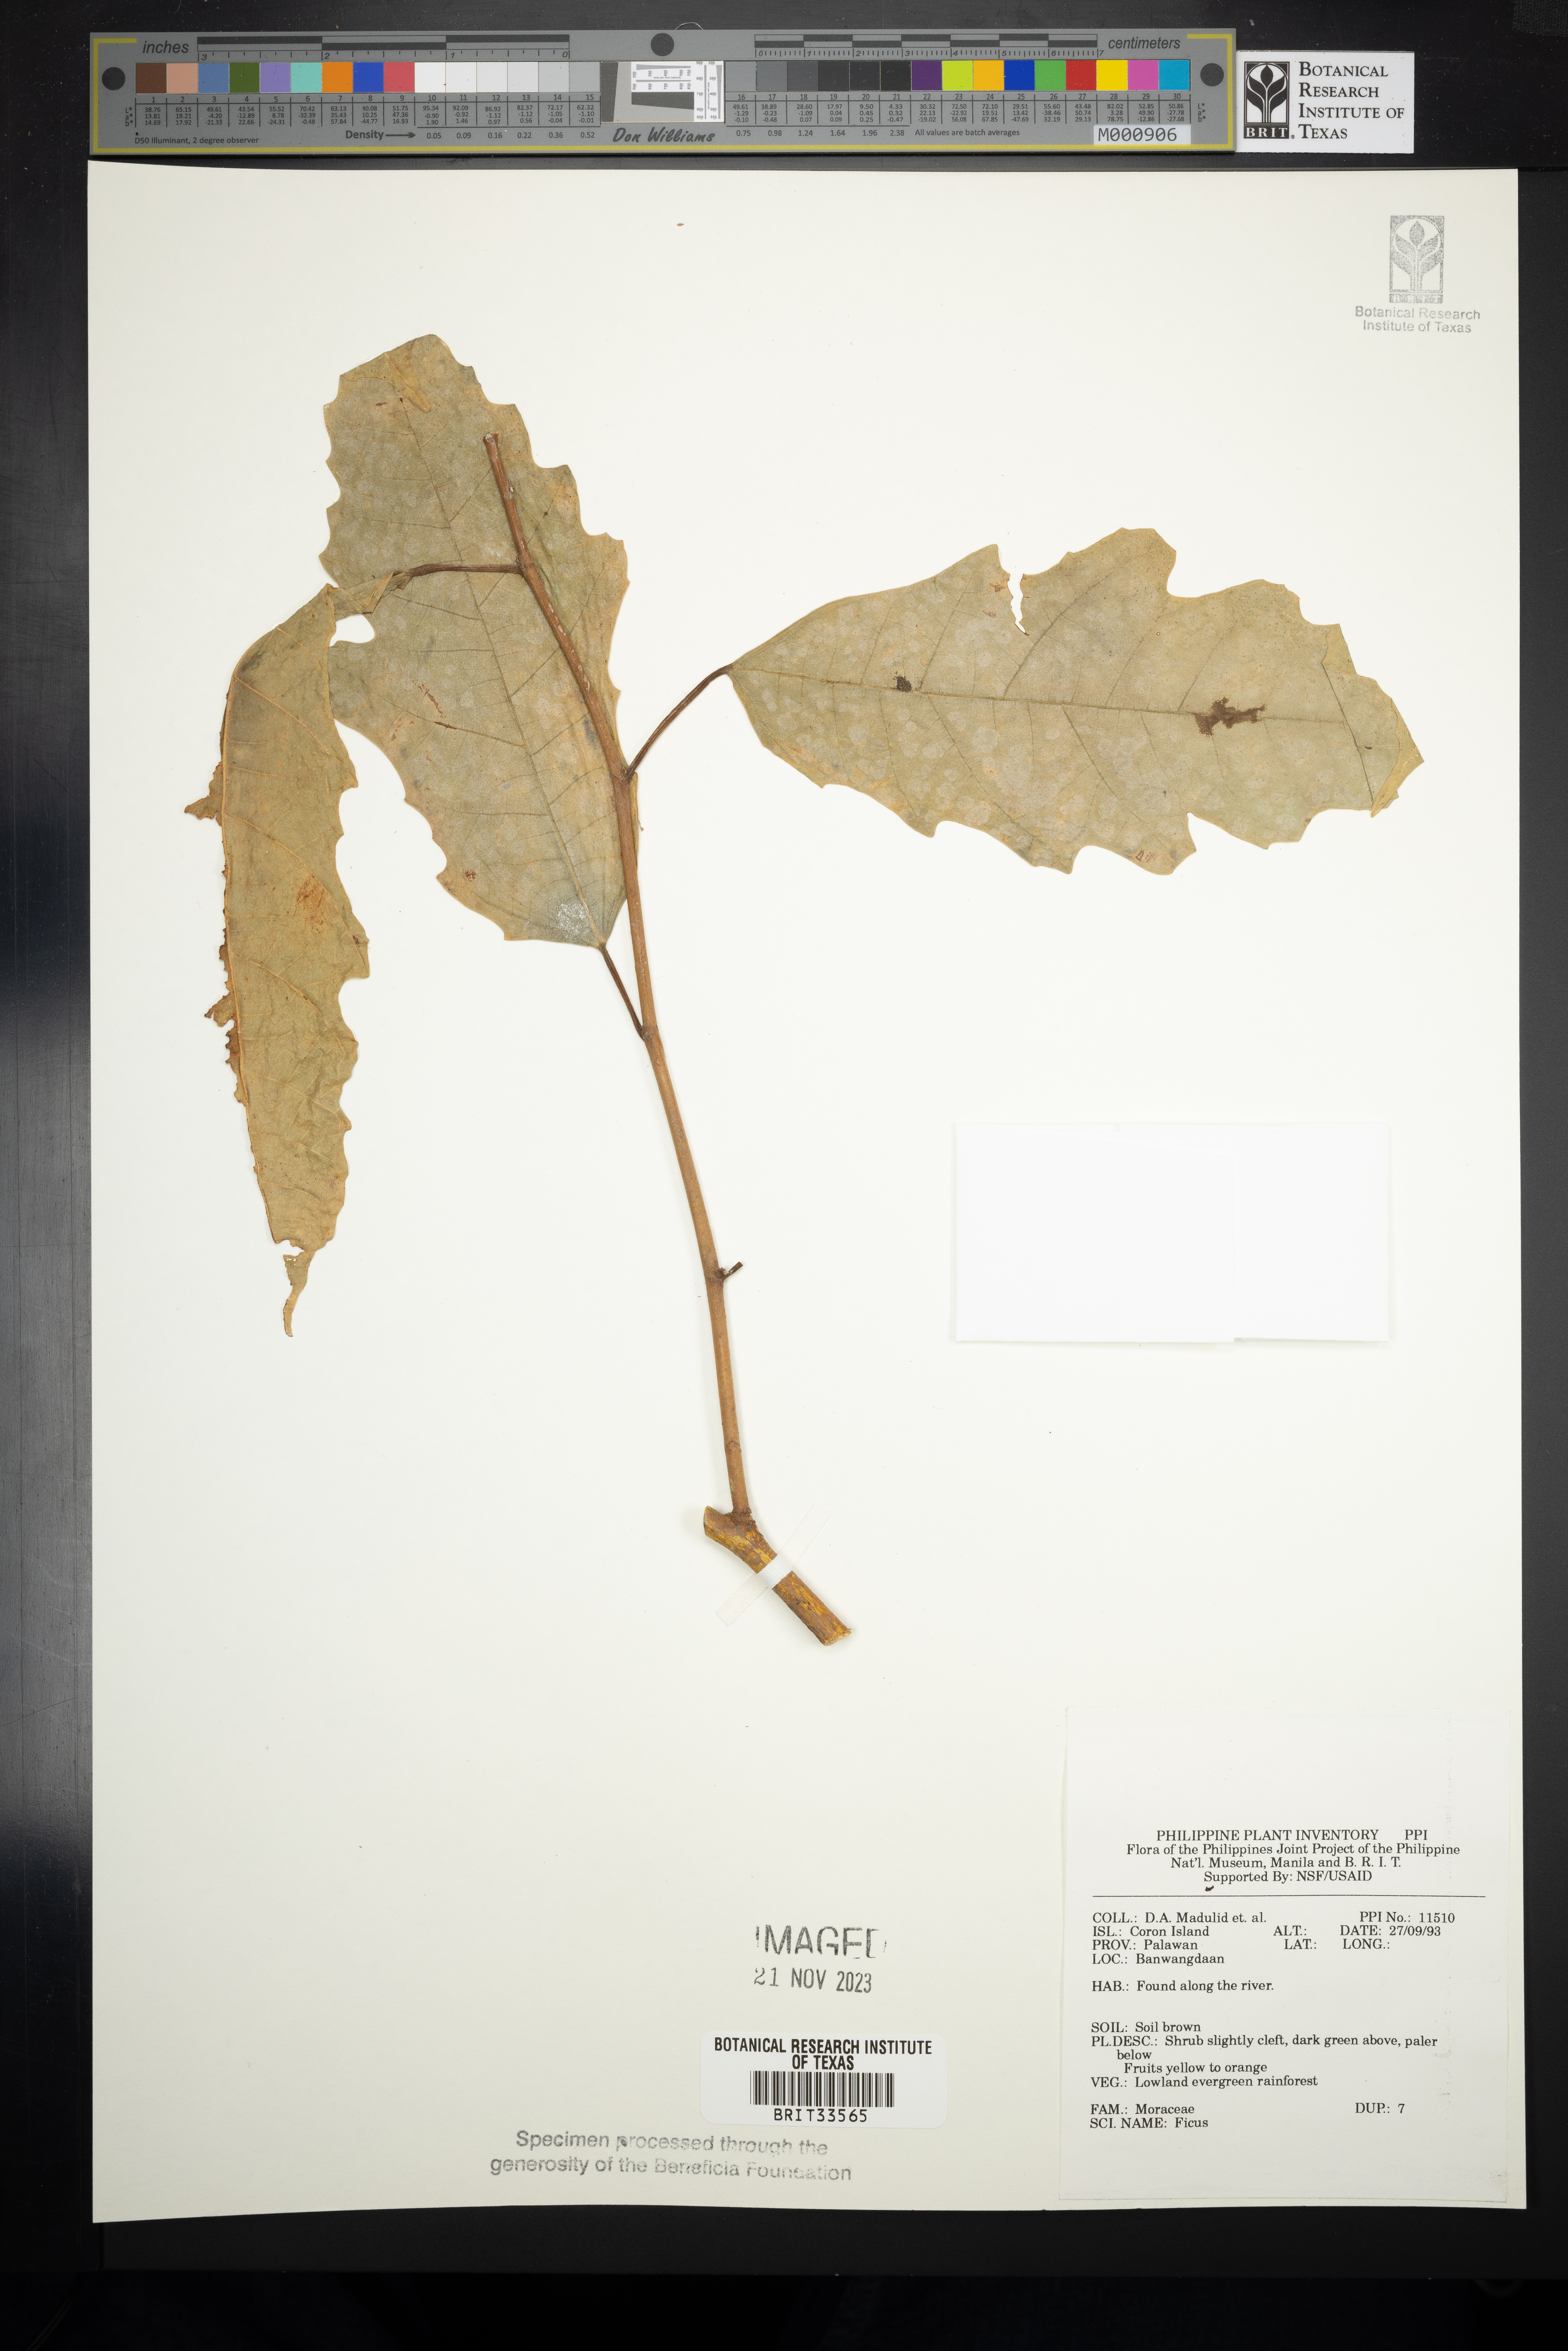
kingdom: Plantae
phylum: Tracheophyta
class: Magnoliopsida
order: Rosales
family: Moraceae
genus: Ficus
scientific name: Ficus
